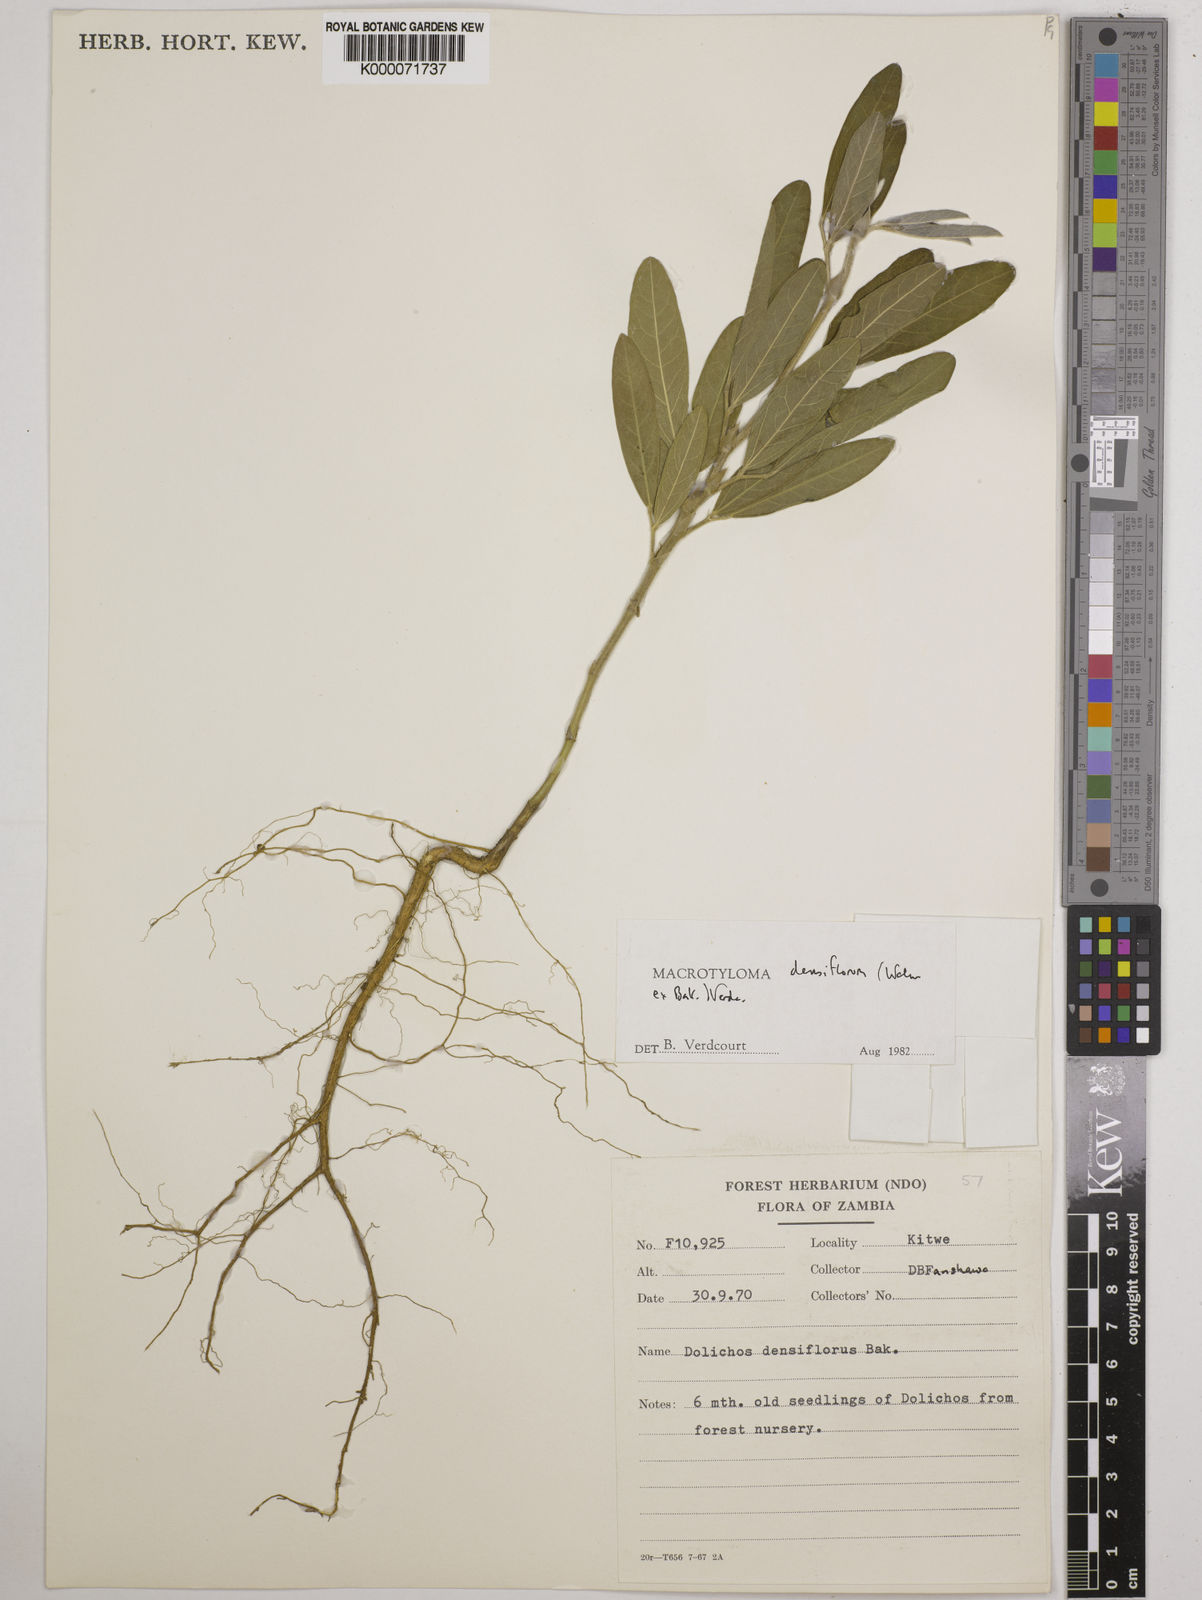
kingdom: Plantae
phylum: Tracheophyta
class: Magnoliopsida
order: Fabales
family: Fabaceae
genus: Macrotyloma
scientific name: Macrotyloma densiflorum
